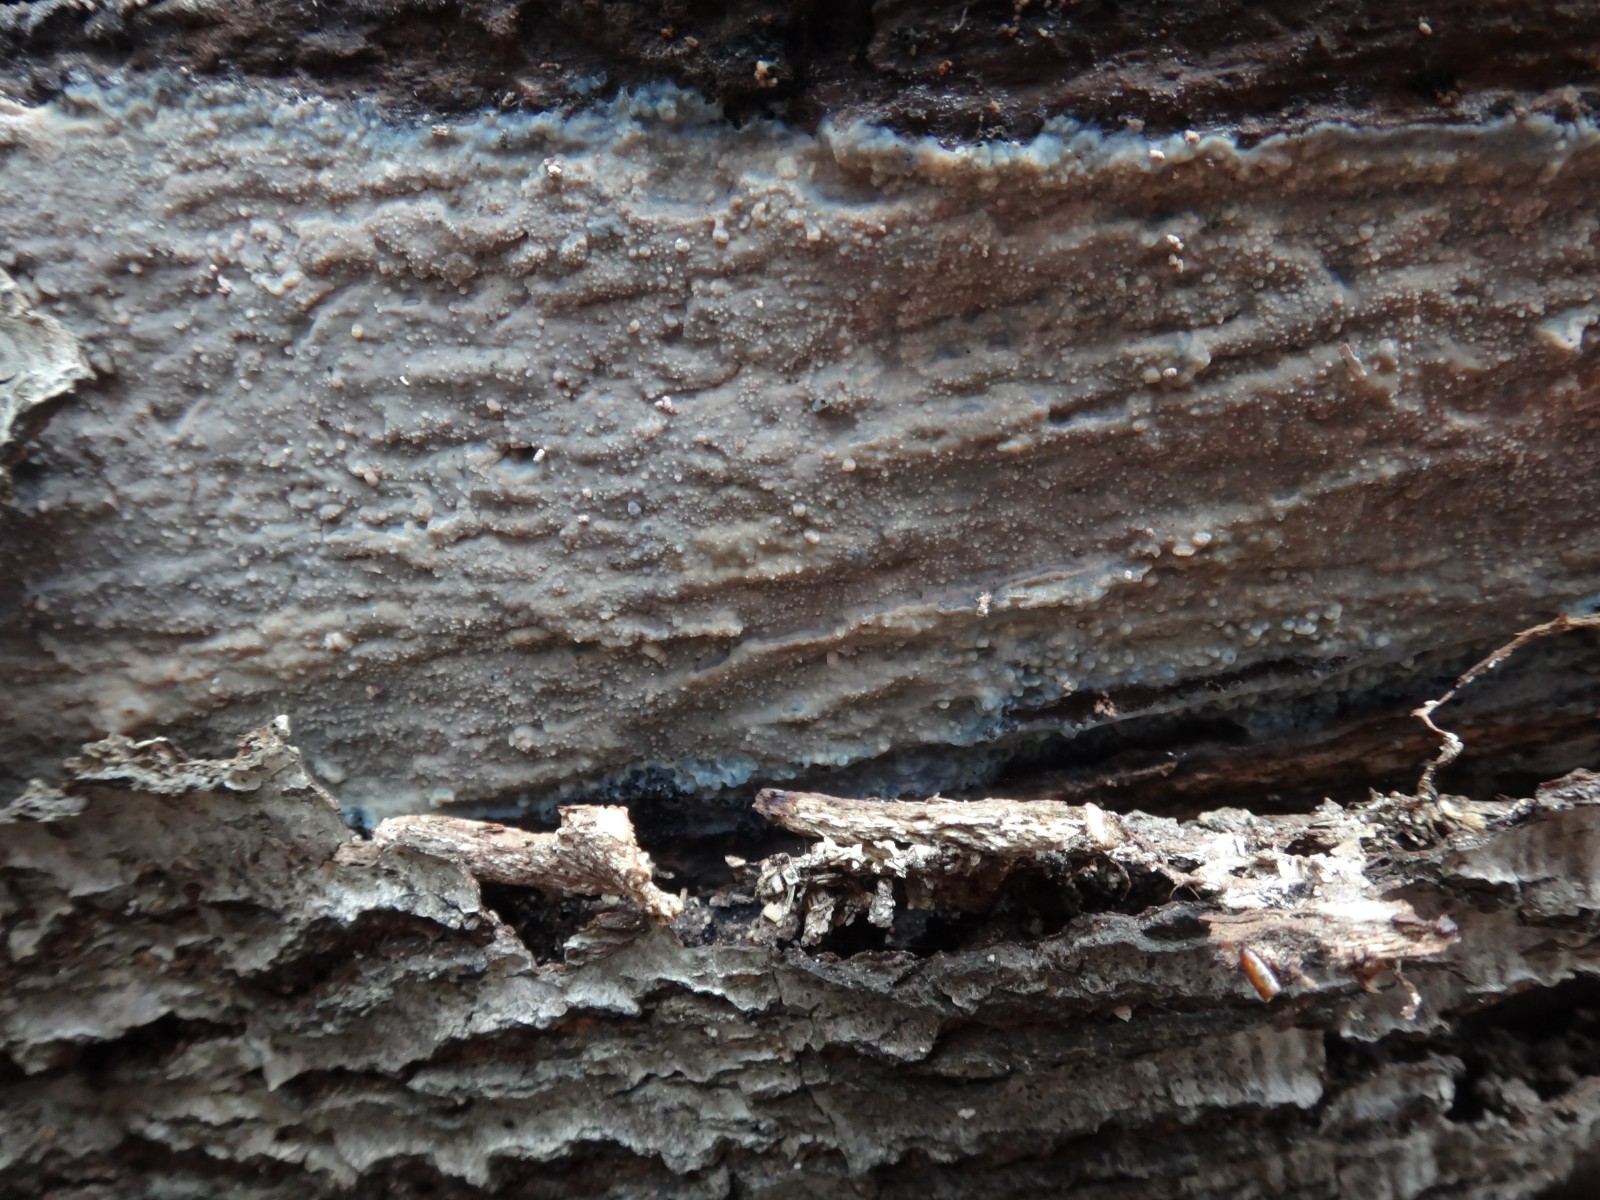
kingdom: Fungi
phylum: Basidiomycota
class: Agaricomycetes
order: Polyporales
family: Meruliaceae
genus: Cytidiella
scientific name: Cytidiella albida
